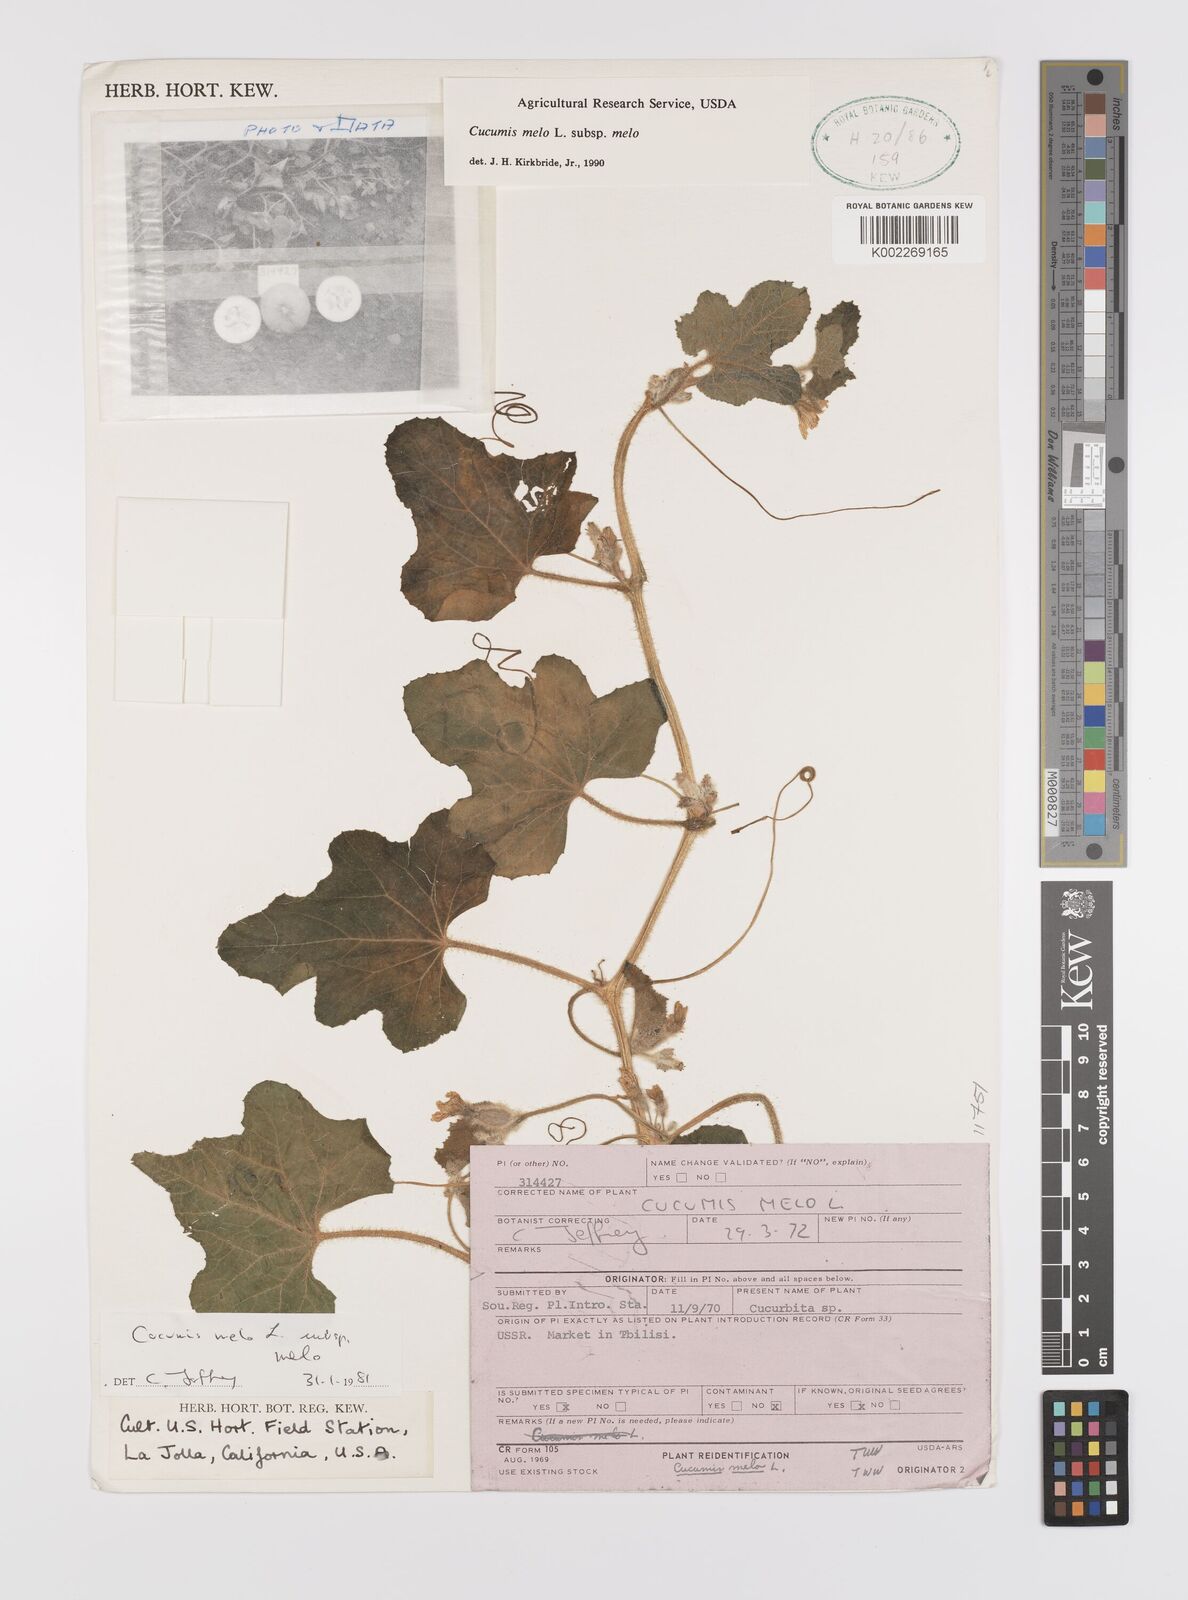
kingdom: Plantae
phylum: Tracheophyta
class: Magnoliopsida
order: Cucurbitales
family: Cucurbitaceae
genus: Cucumis
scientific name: Cucumis melo
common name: Melon
